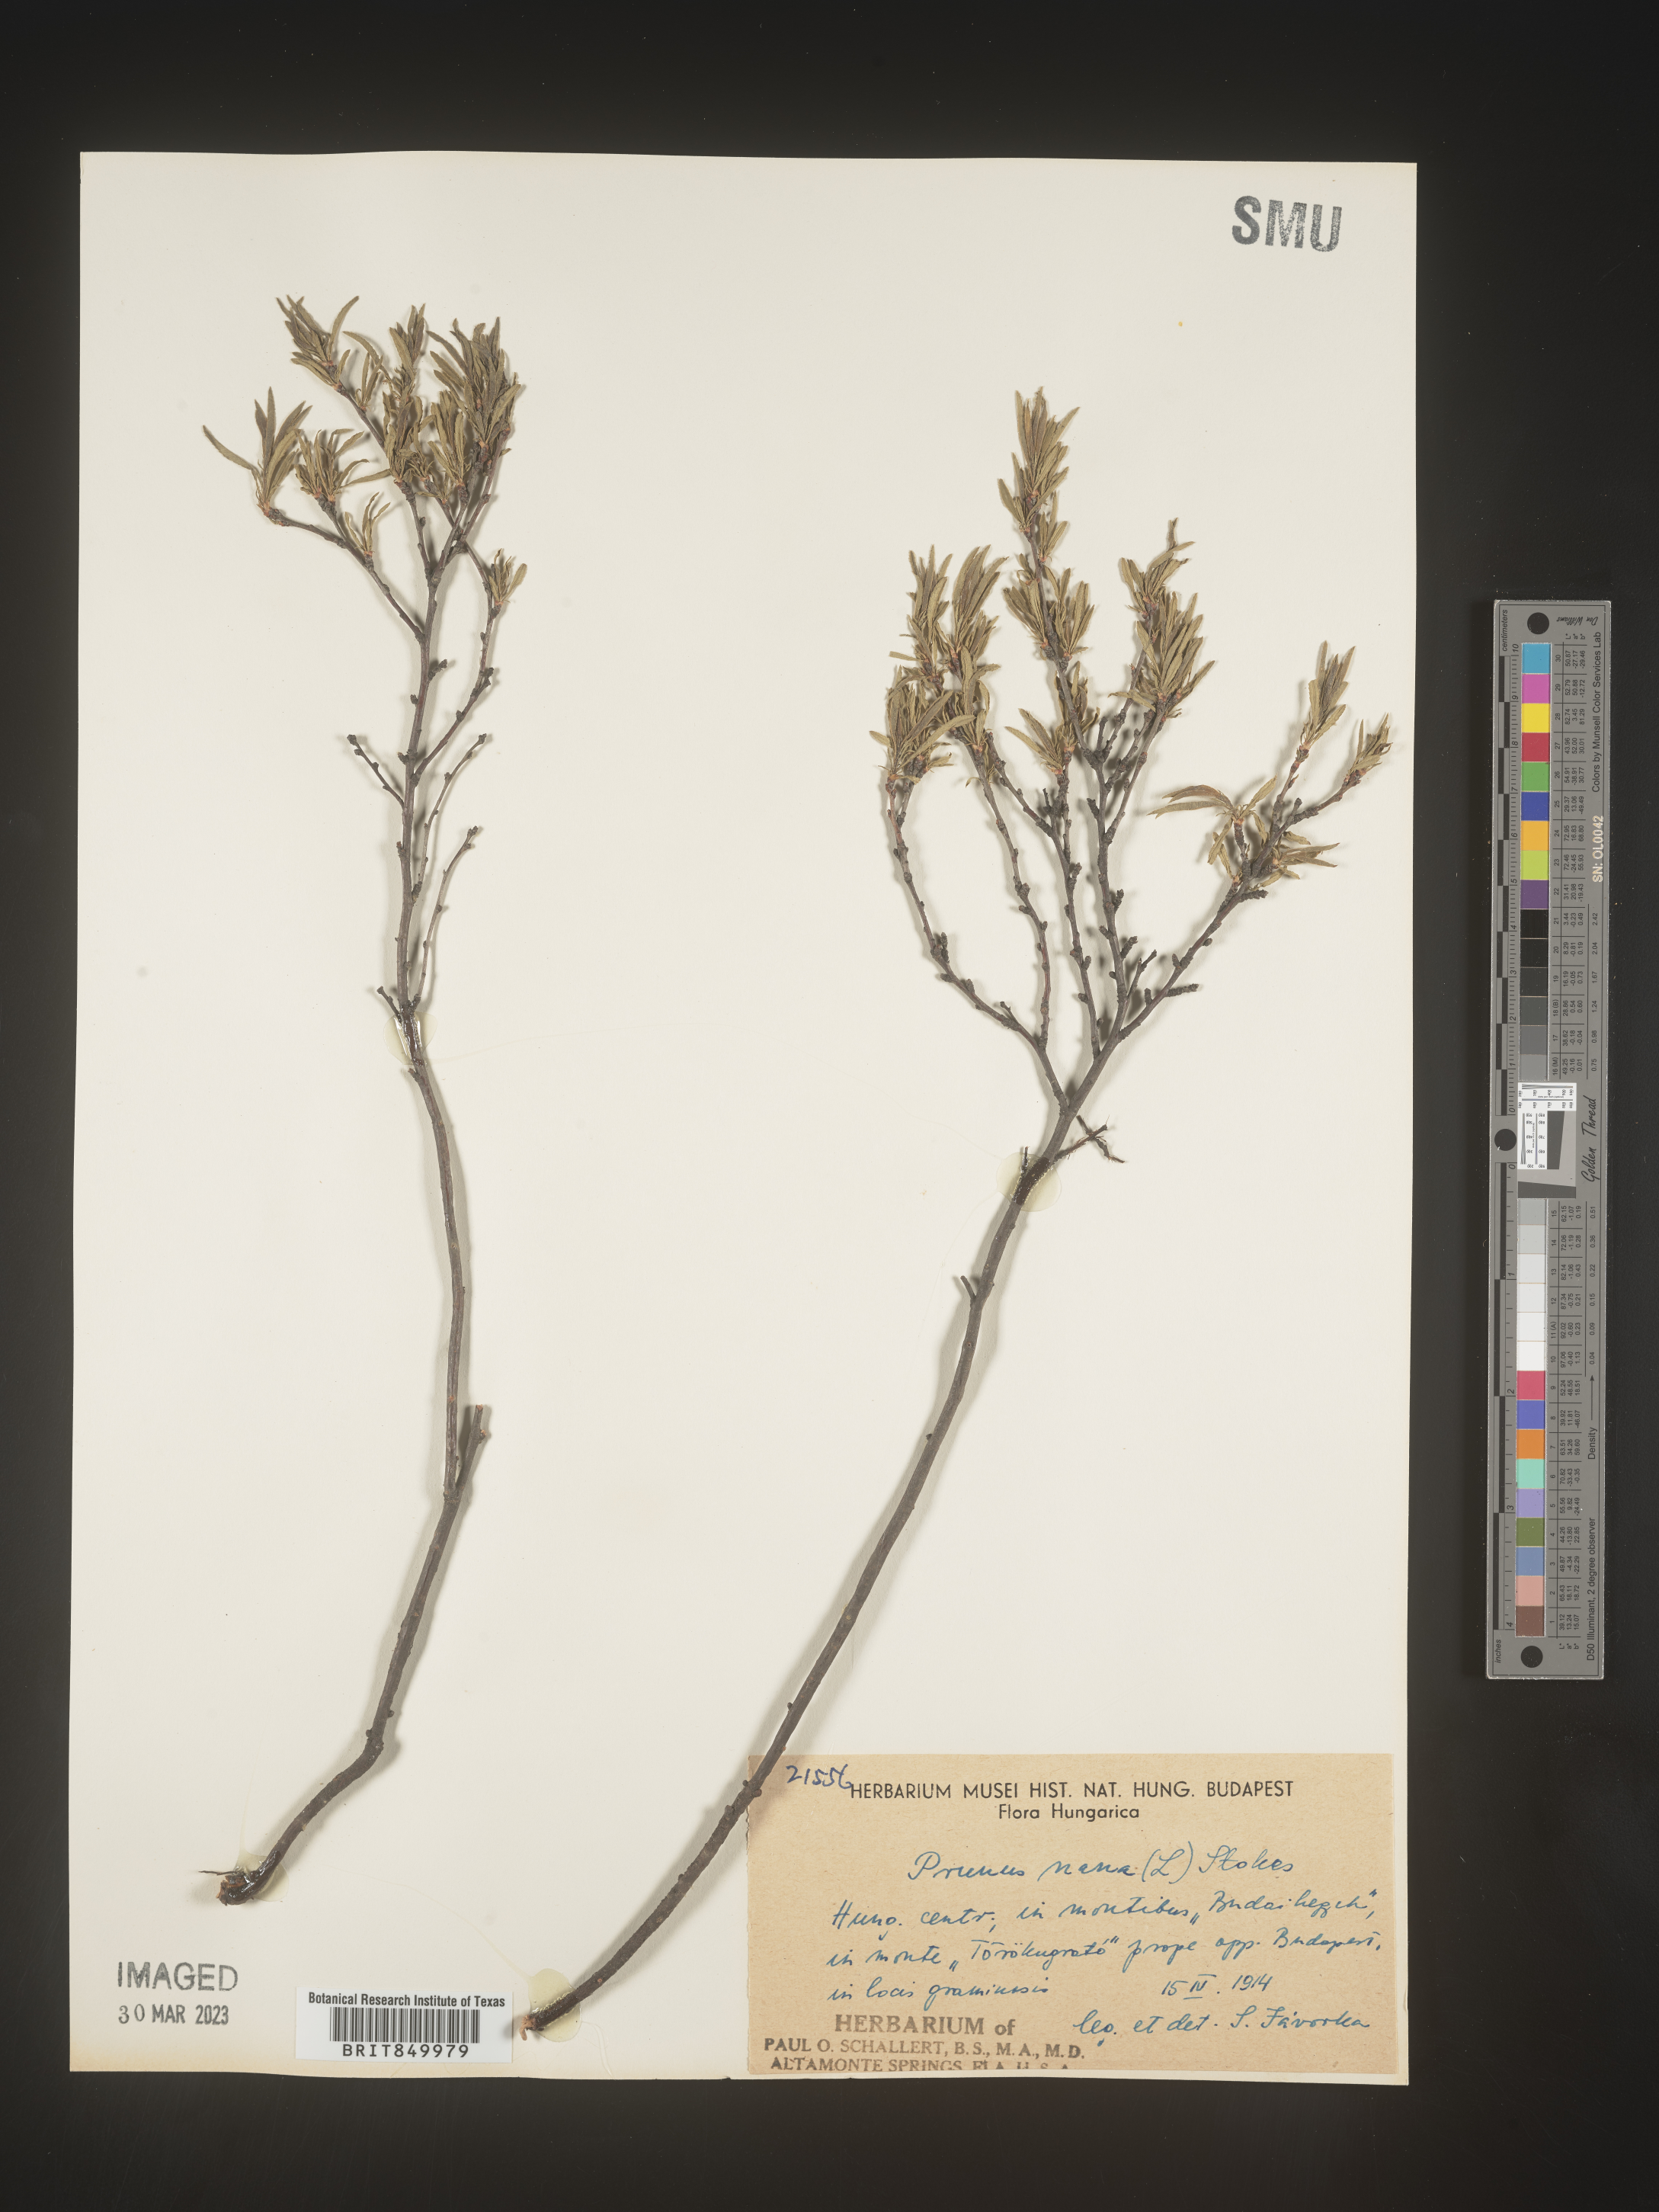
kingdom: Plantae
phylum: Tracheophyta
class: Magnoliopsida
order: Rosales
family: Rosaceae
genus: Prunus
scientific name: Prunus
